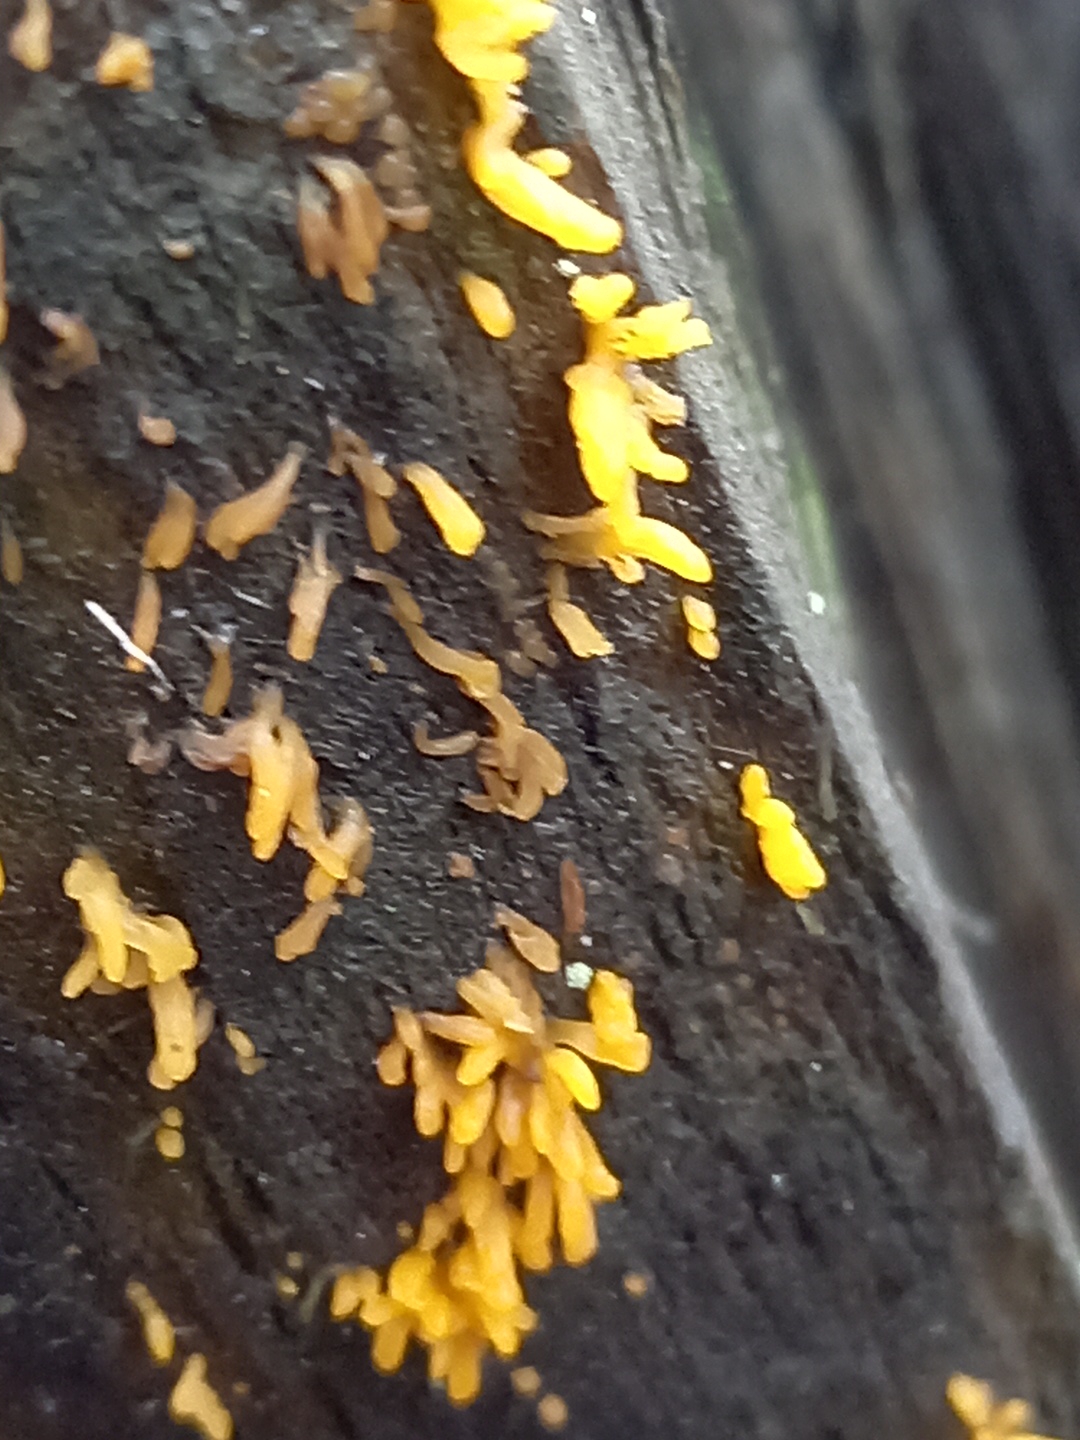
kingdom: Fungi
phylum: Basidiomycota
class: Dacrymycetes
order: Dacrymycetales
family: Dacrymycetaceae
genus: Calocera
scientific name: Calocera cornea
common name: liden guldgaffel
